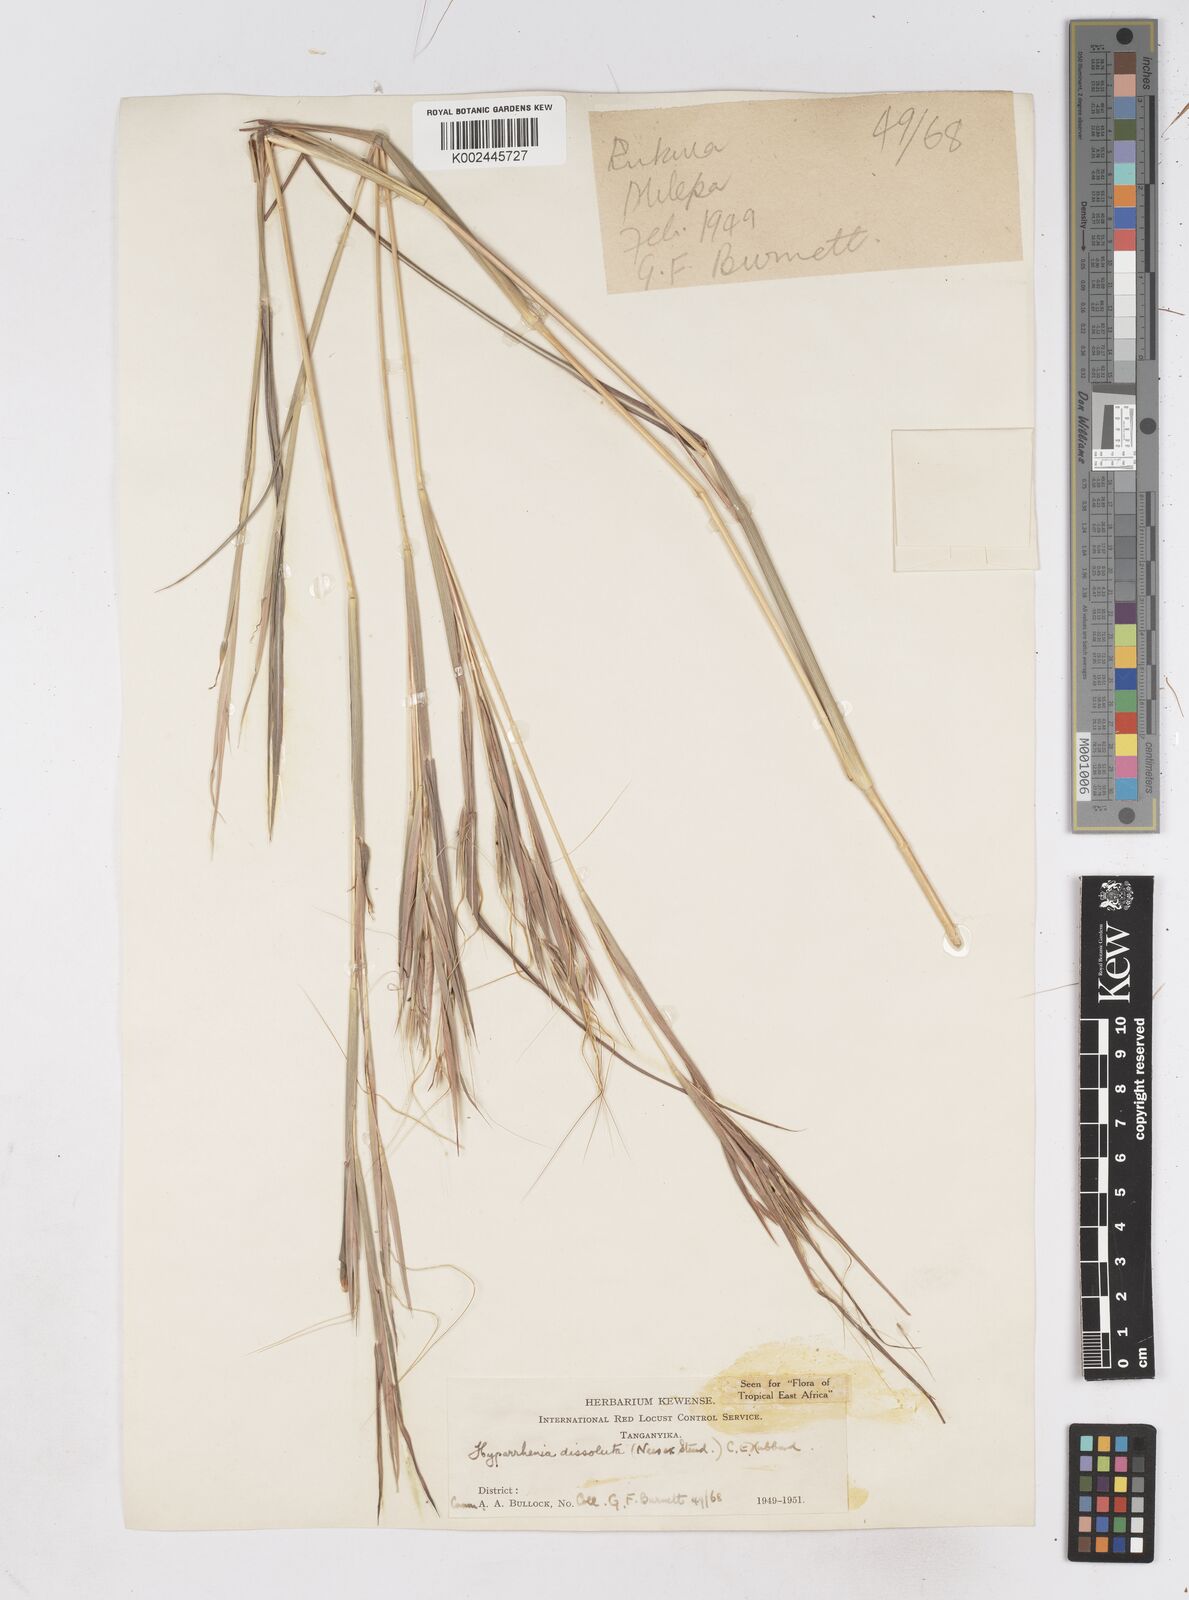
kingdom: Plantae
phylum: Tracheophyta
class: Liliopsida
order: Poales
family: Poaceae
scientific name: Poaceae
